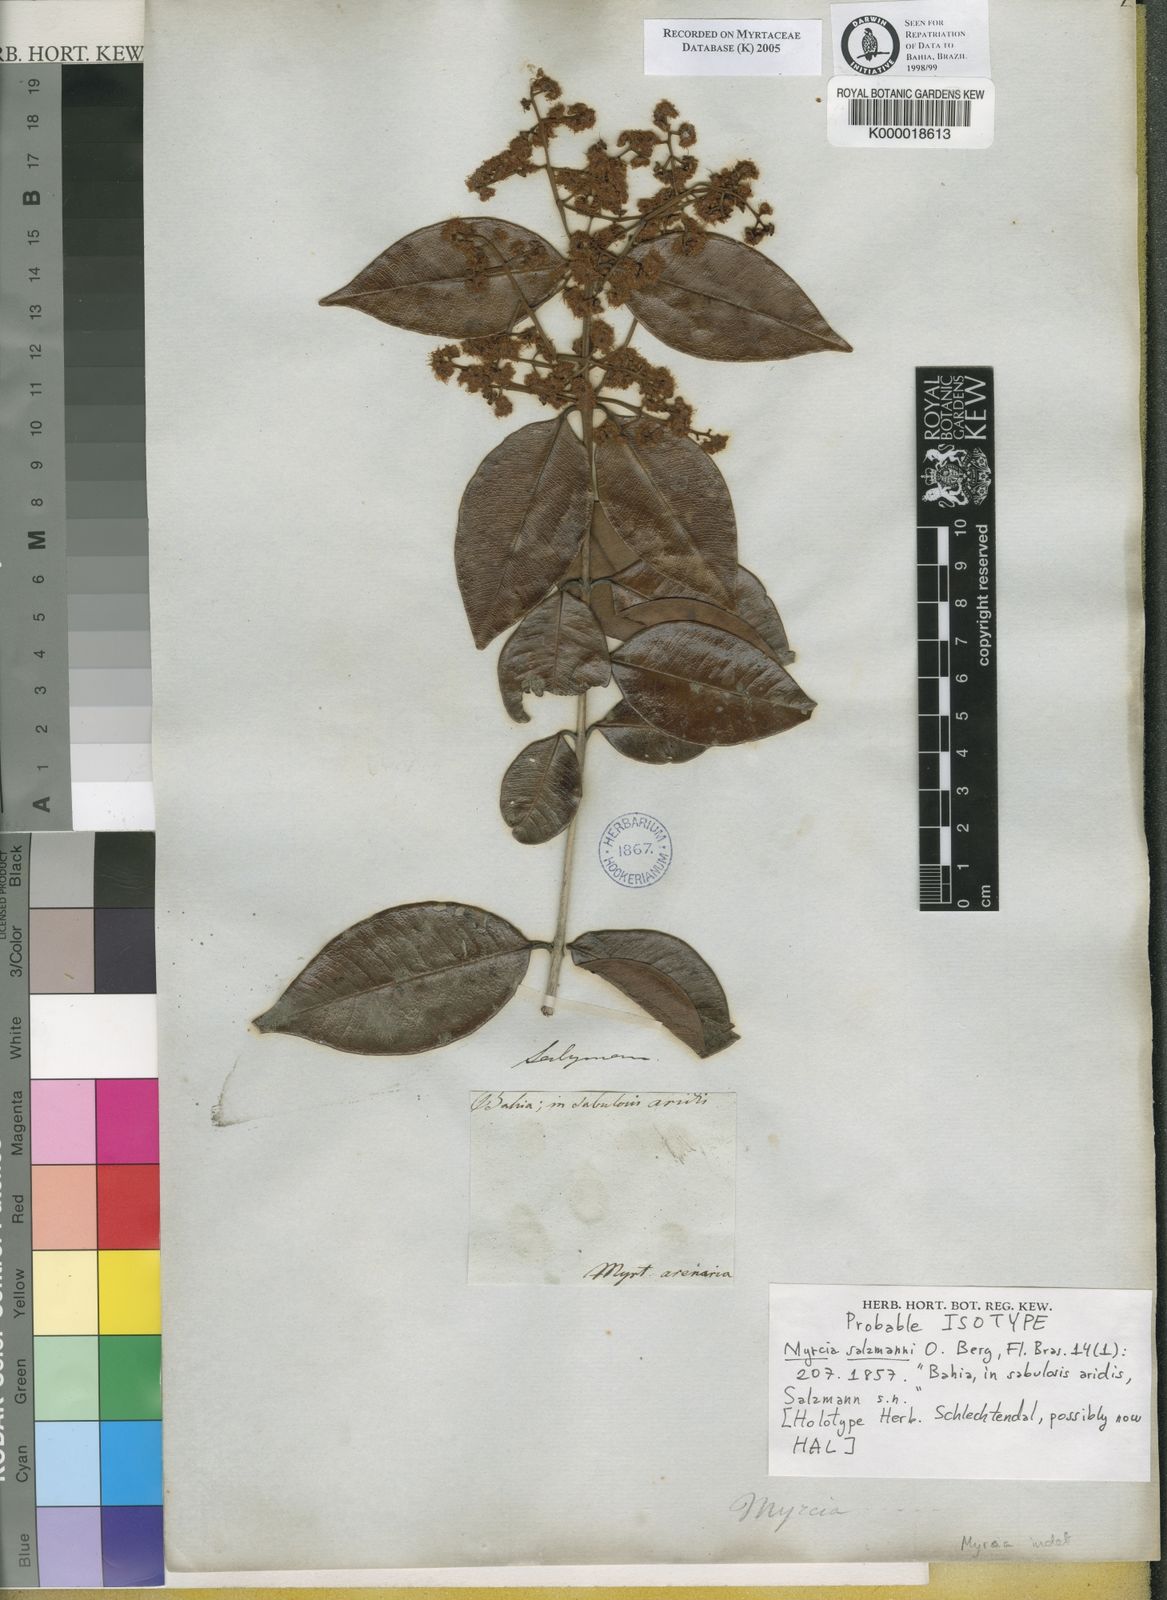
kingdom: Plantae
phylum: Tracheophyta
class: Magnoliopsida
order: Myrtales
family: Myrtaceae
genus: Myrcia
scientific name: Myrcia salzmannii
